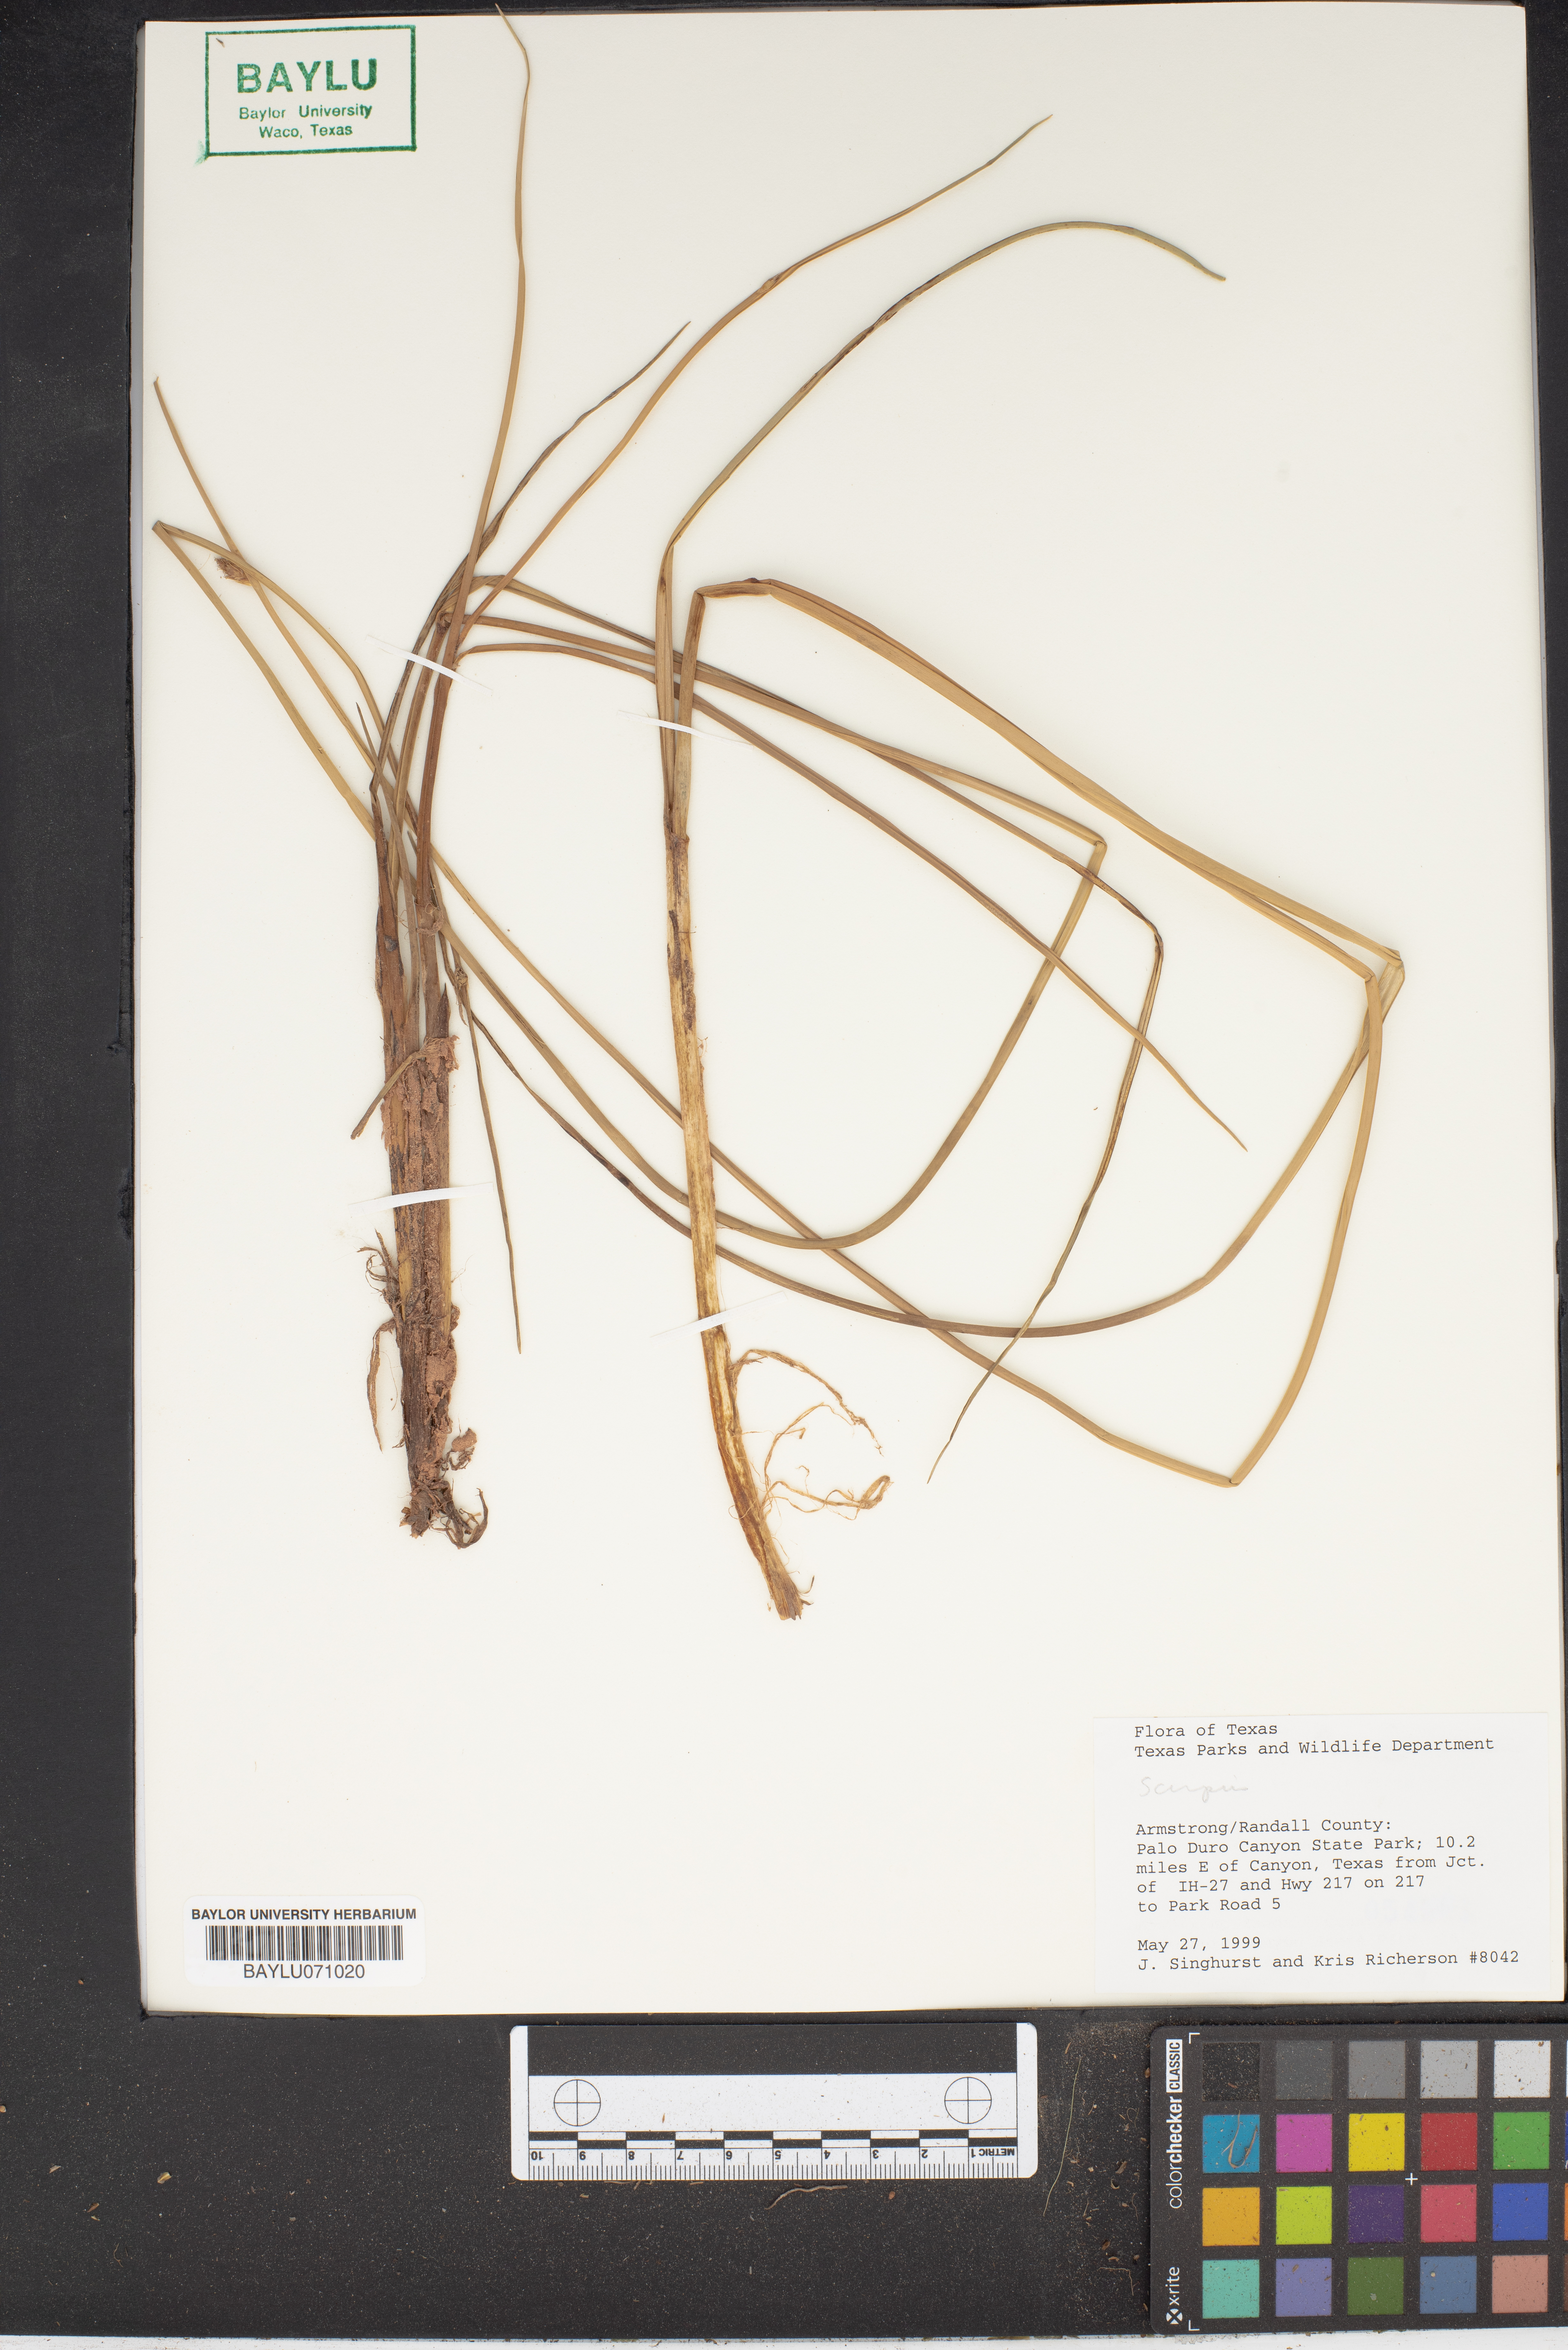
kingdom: Plantae
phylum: Tracheophyta
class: Liliopsida
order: Poales
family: Cyperaceae
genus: Scirpus
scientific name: Scirpus
